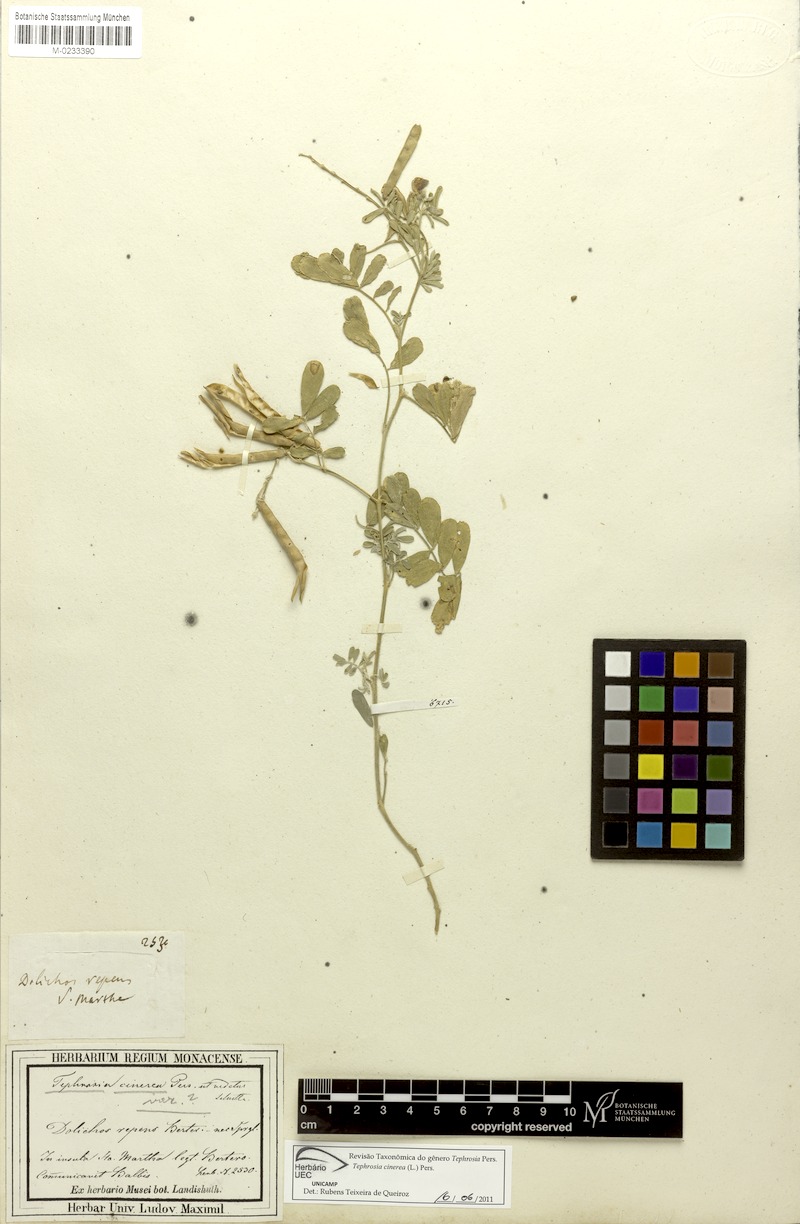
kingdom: Plantae
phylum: Tracheophyta
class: Magnoliopsida
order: Fabales
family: Fabaceae
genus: Tephrosia
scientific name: Tephrosia cinerea
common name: Ashen hoarypea
